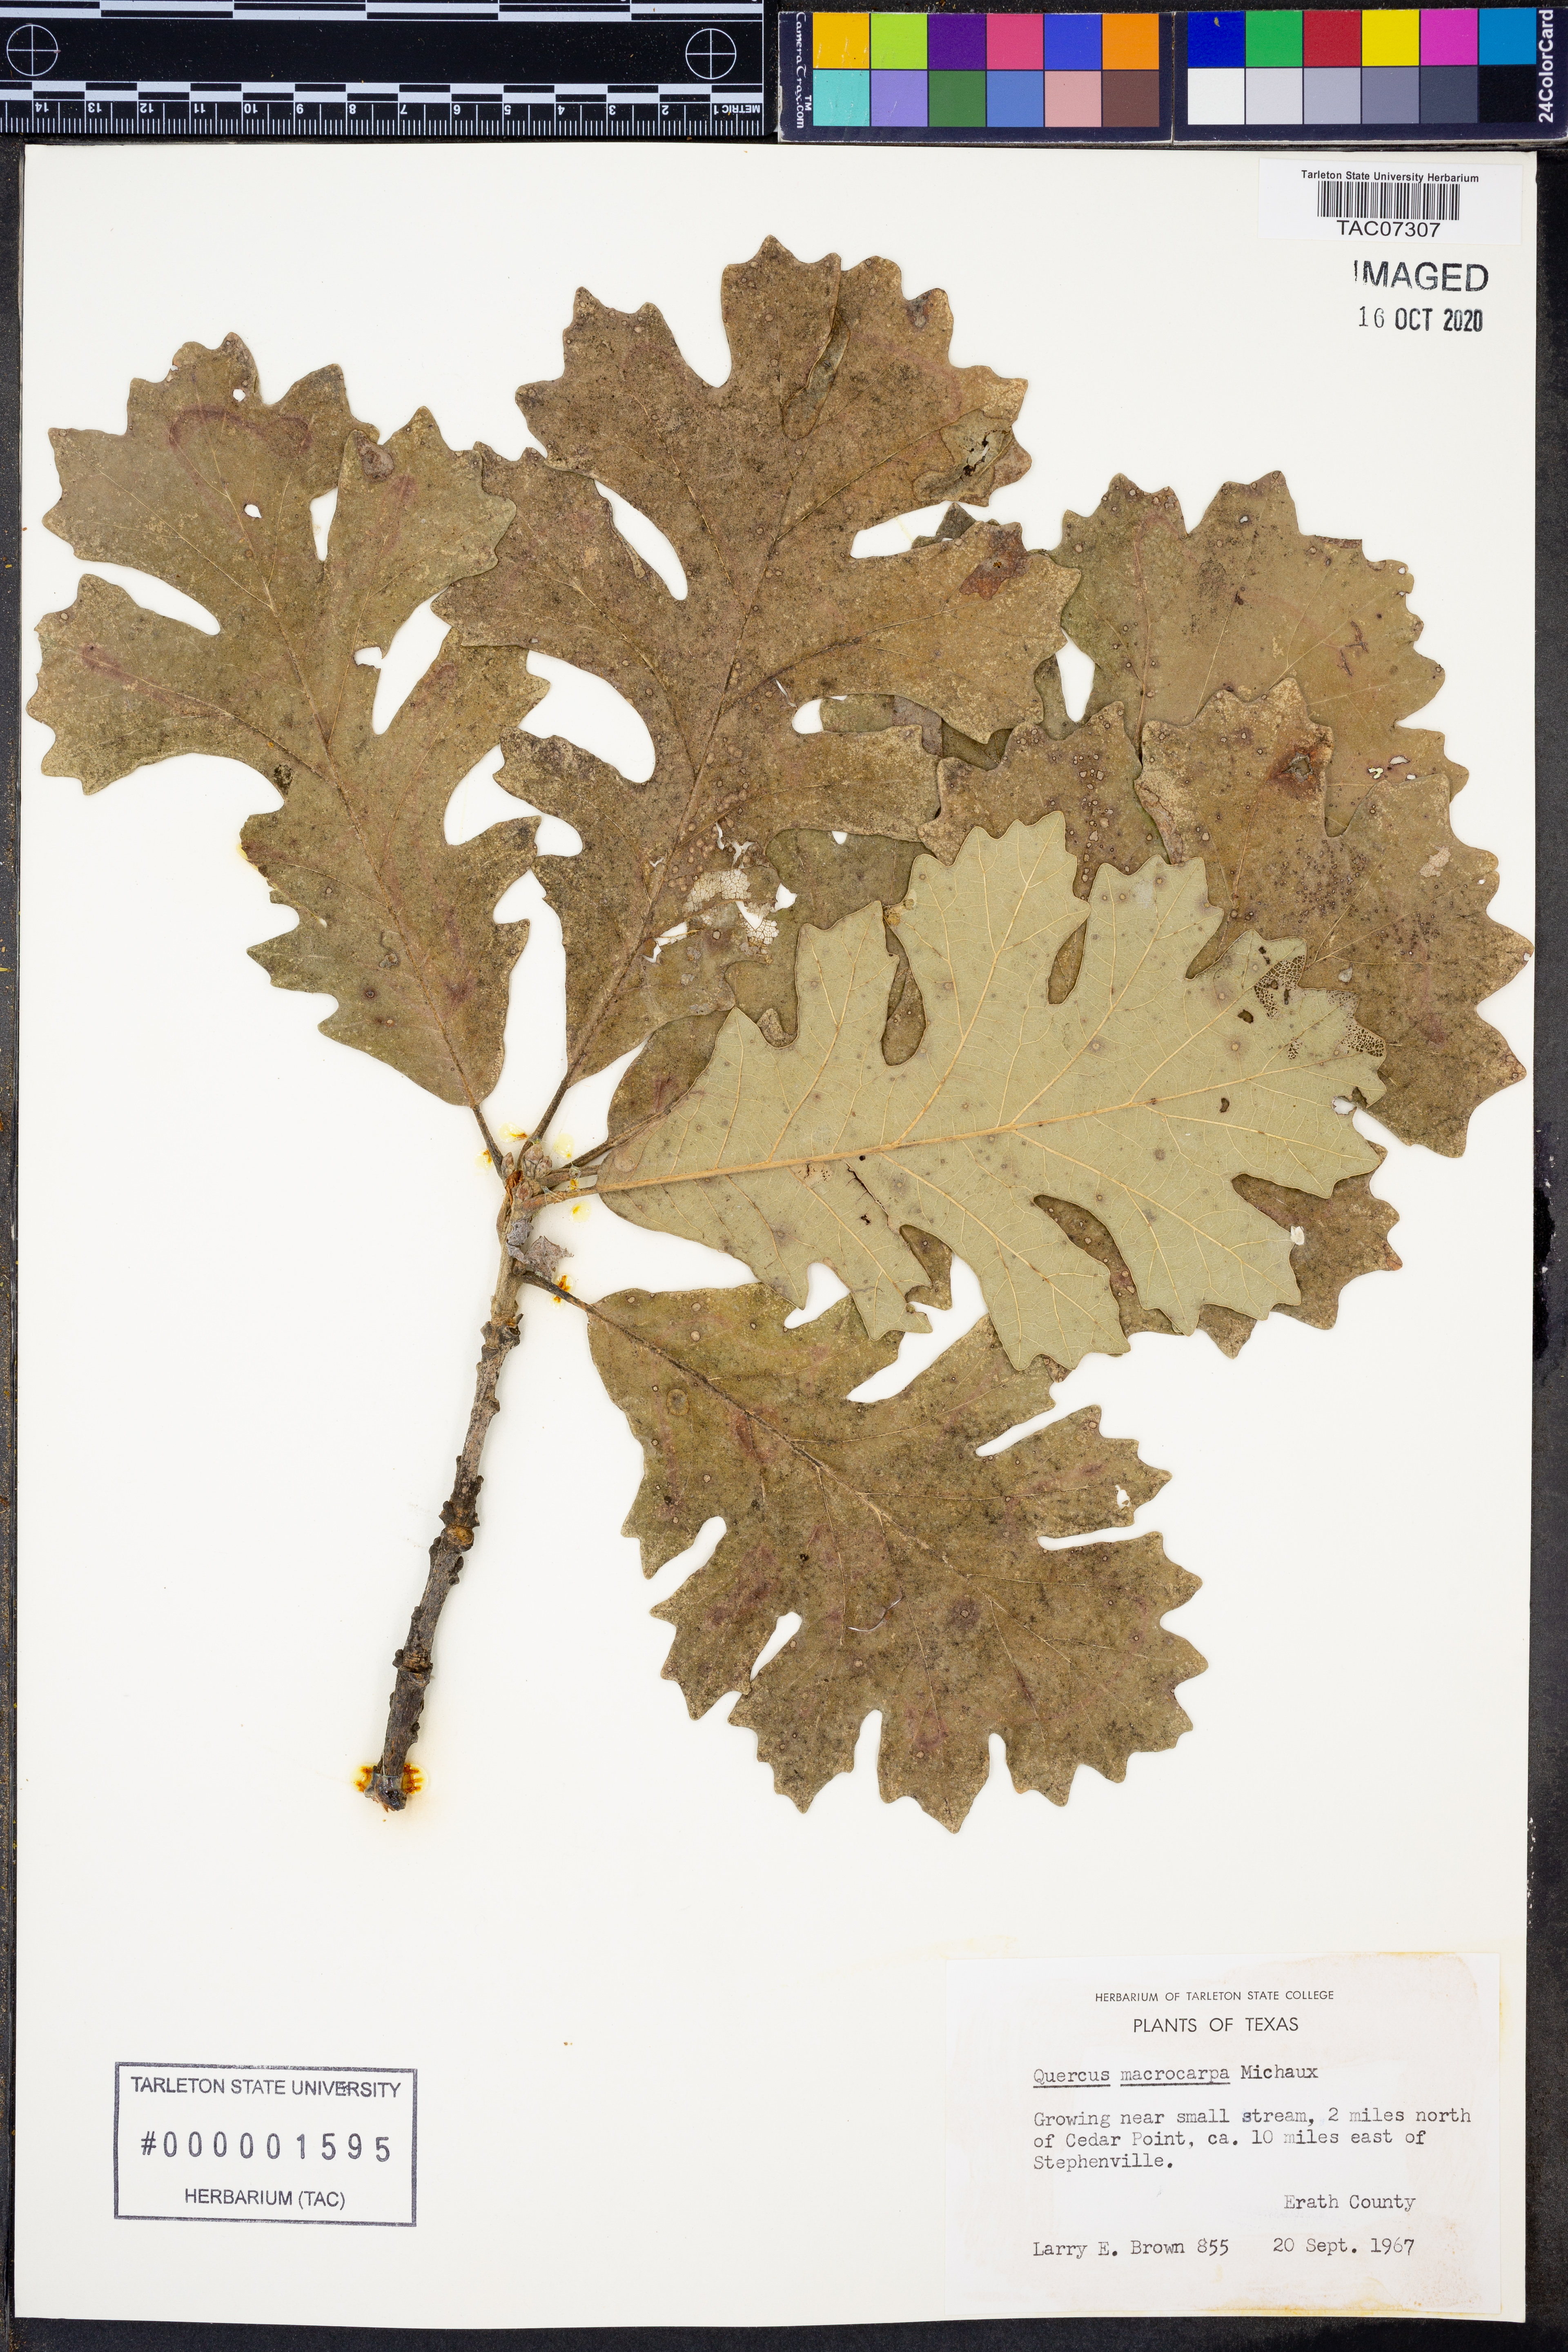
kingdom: Plantae
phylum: Tracheophyta
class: Magnoliopsida
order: Fagales
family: Fagaceae
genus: Quercus
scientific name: Quercus macrocarpa
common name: Bur oak
